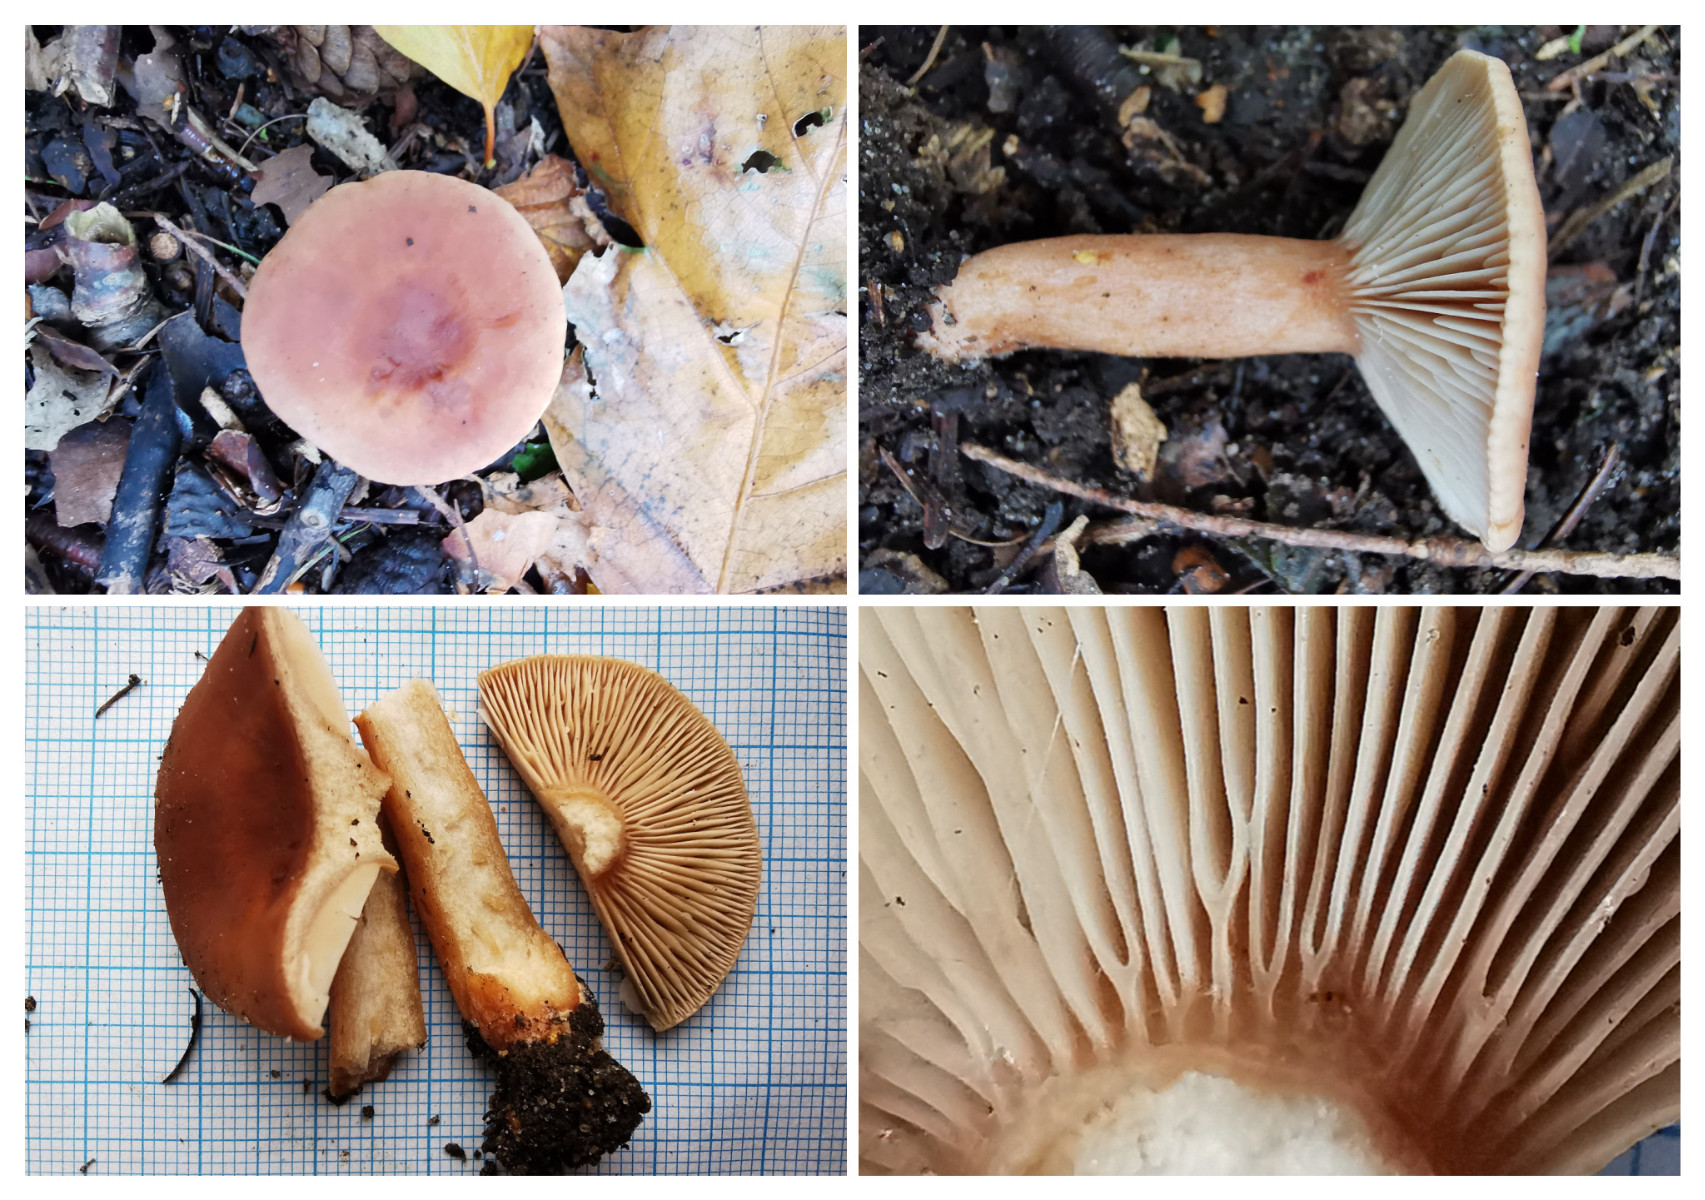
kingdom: Fungi
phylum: Basidiomycota
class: Agaricomycetes
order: Russulales
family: Russulaceae
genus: Lactarius
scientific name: Lactarius
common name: mælkehat
